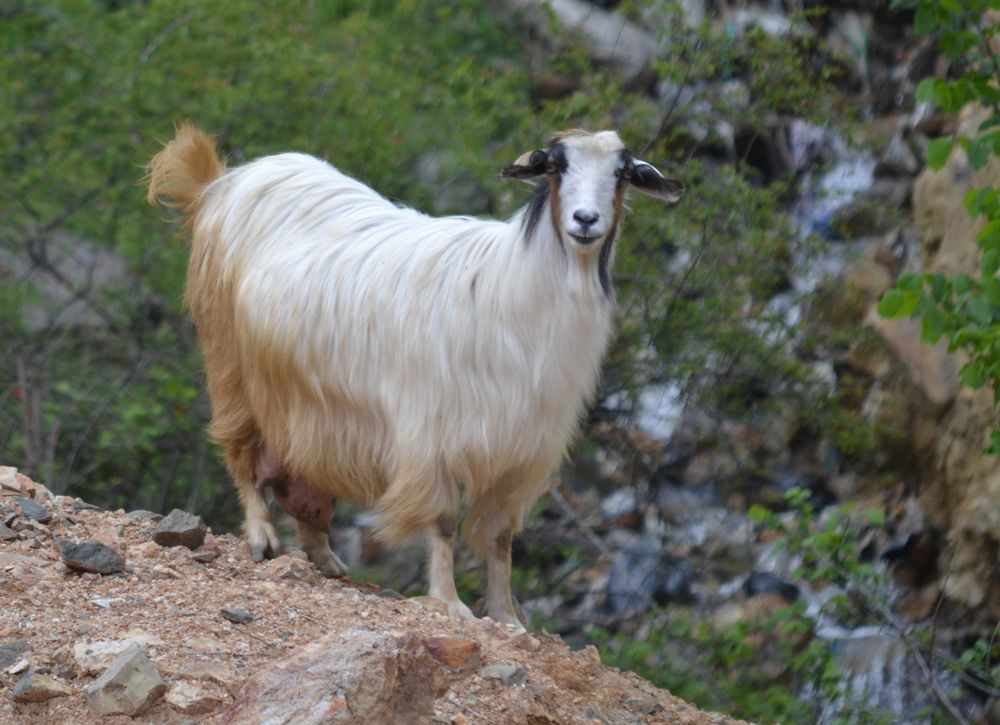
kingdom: Animalia
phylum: Chordata
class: Mammalia
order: Artiodactyla
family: Bovidae
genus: Capra
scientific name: Capra hircus
